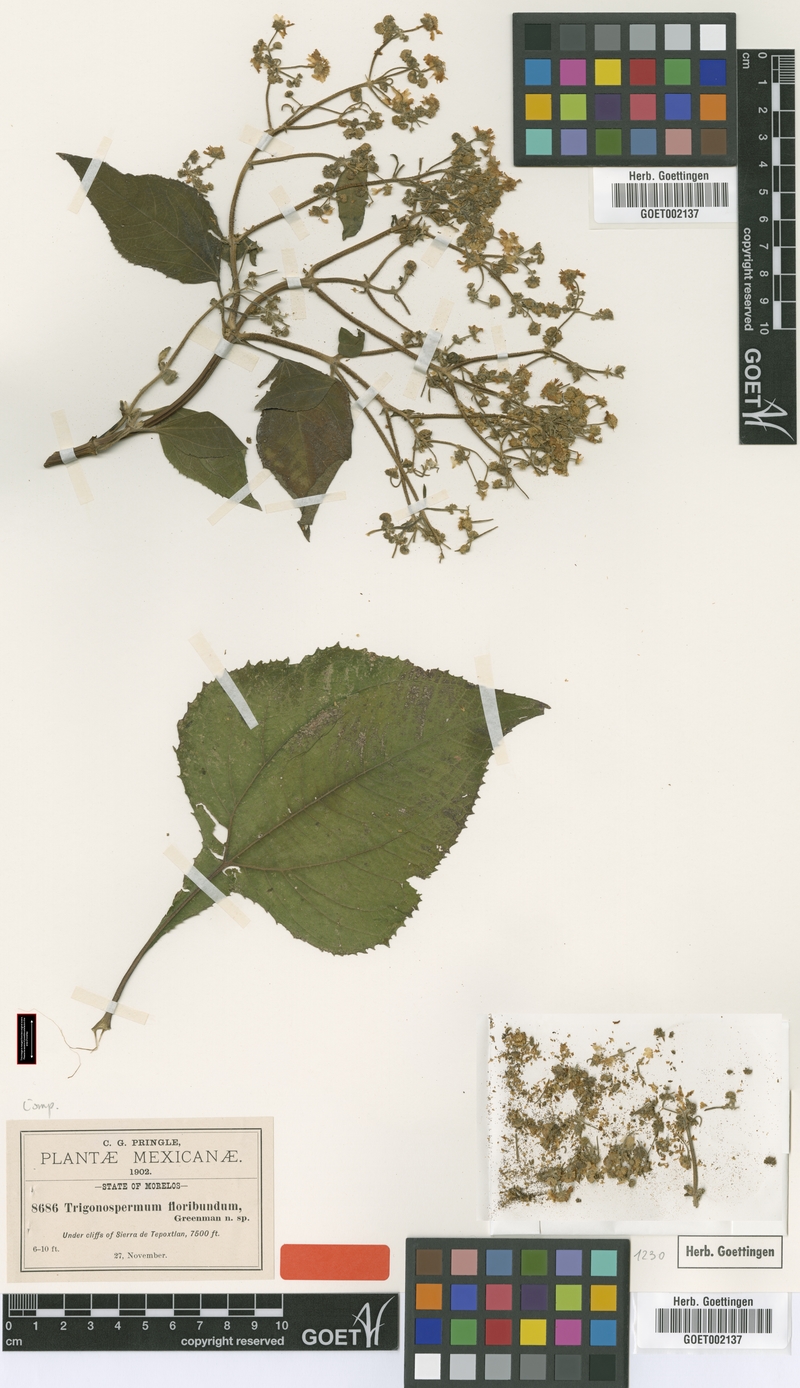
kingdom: Plantae
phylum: Tracheophyta
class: Magnoliopsida
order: Asterales
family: Asteraceae
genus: Trigonospermum
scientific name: Trigonospermum melampodioides
